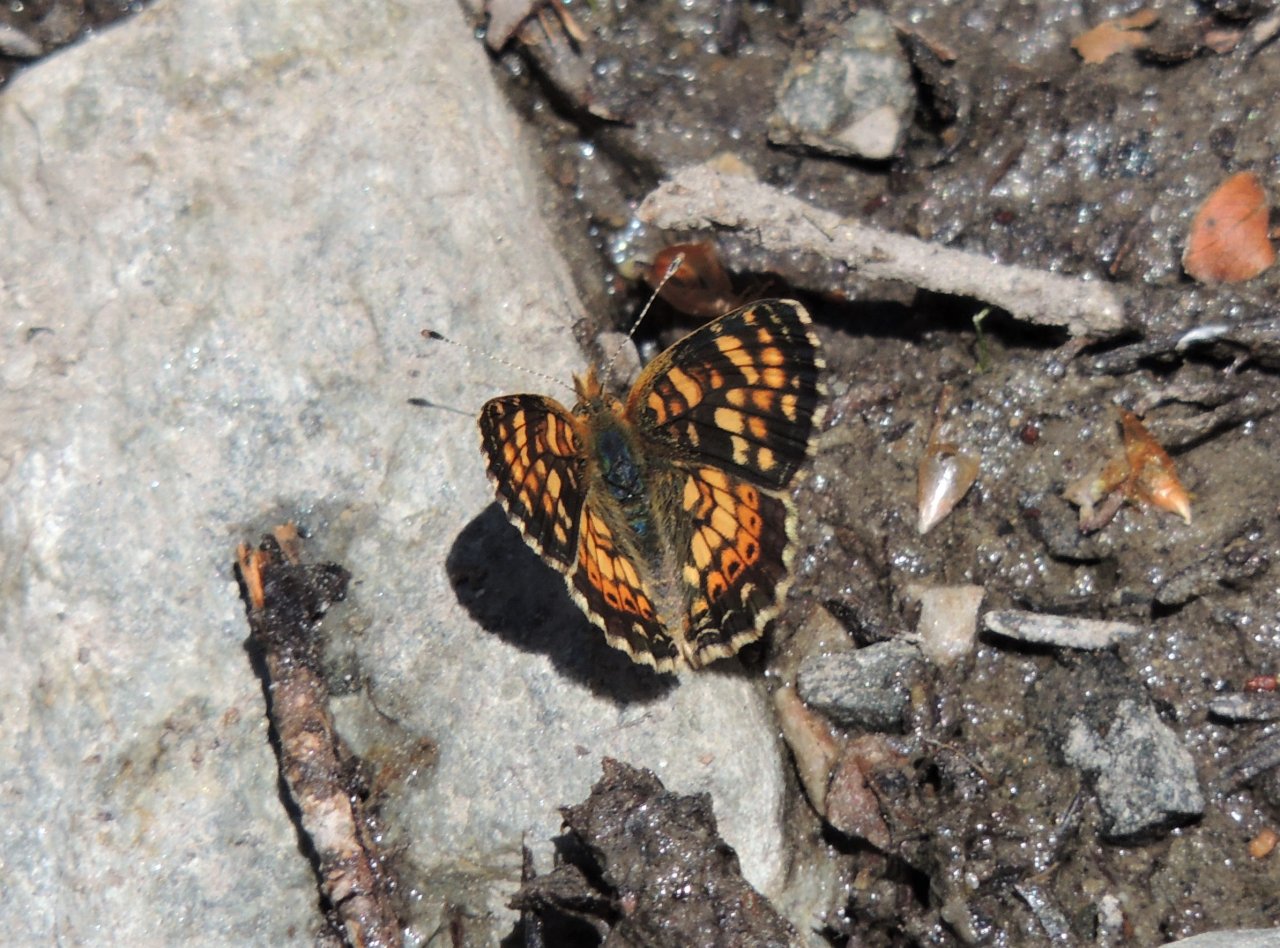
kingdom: Animalia
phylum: Arthropoda
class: Insecta
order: Lepidoptera
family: Nymphalidae
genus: Phyciodes
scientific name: Phyciodes tharos
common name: Field Crescent
